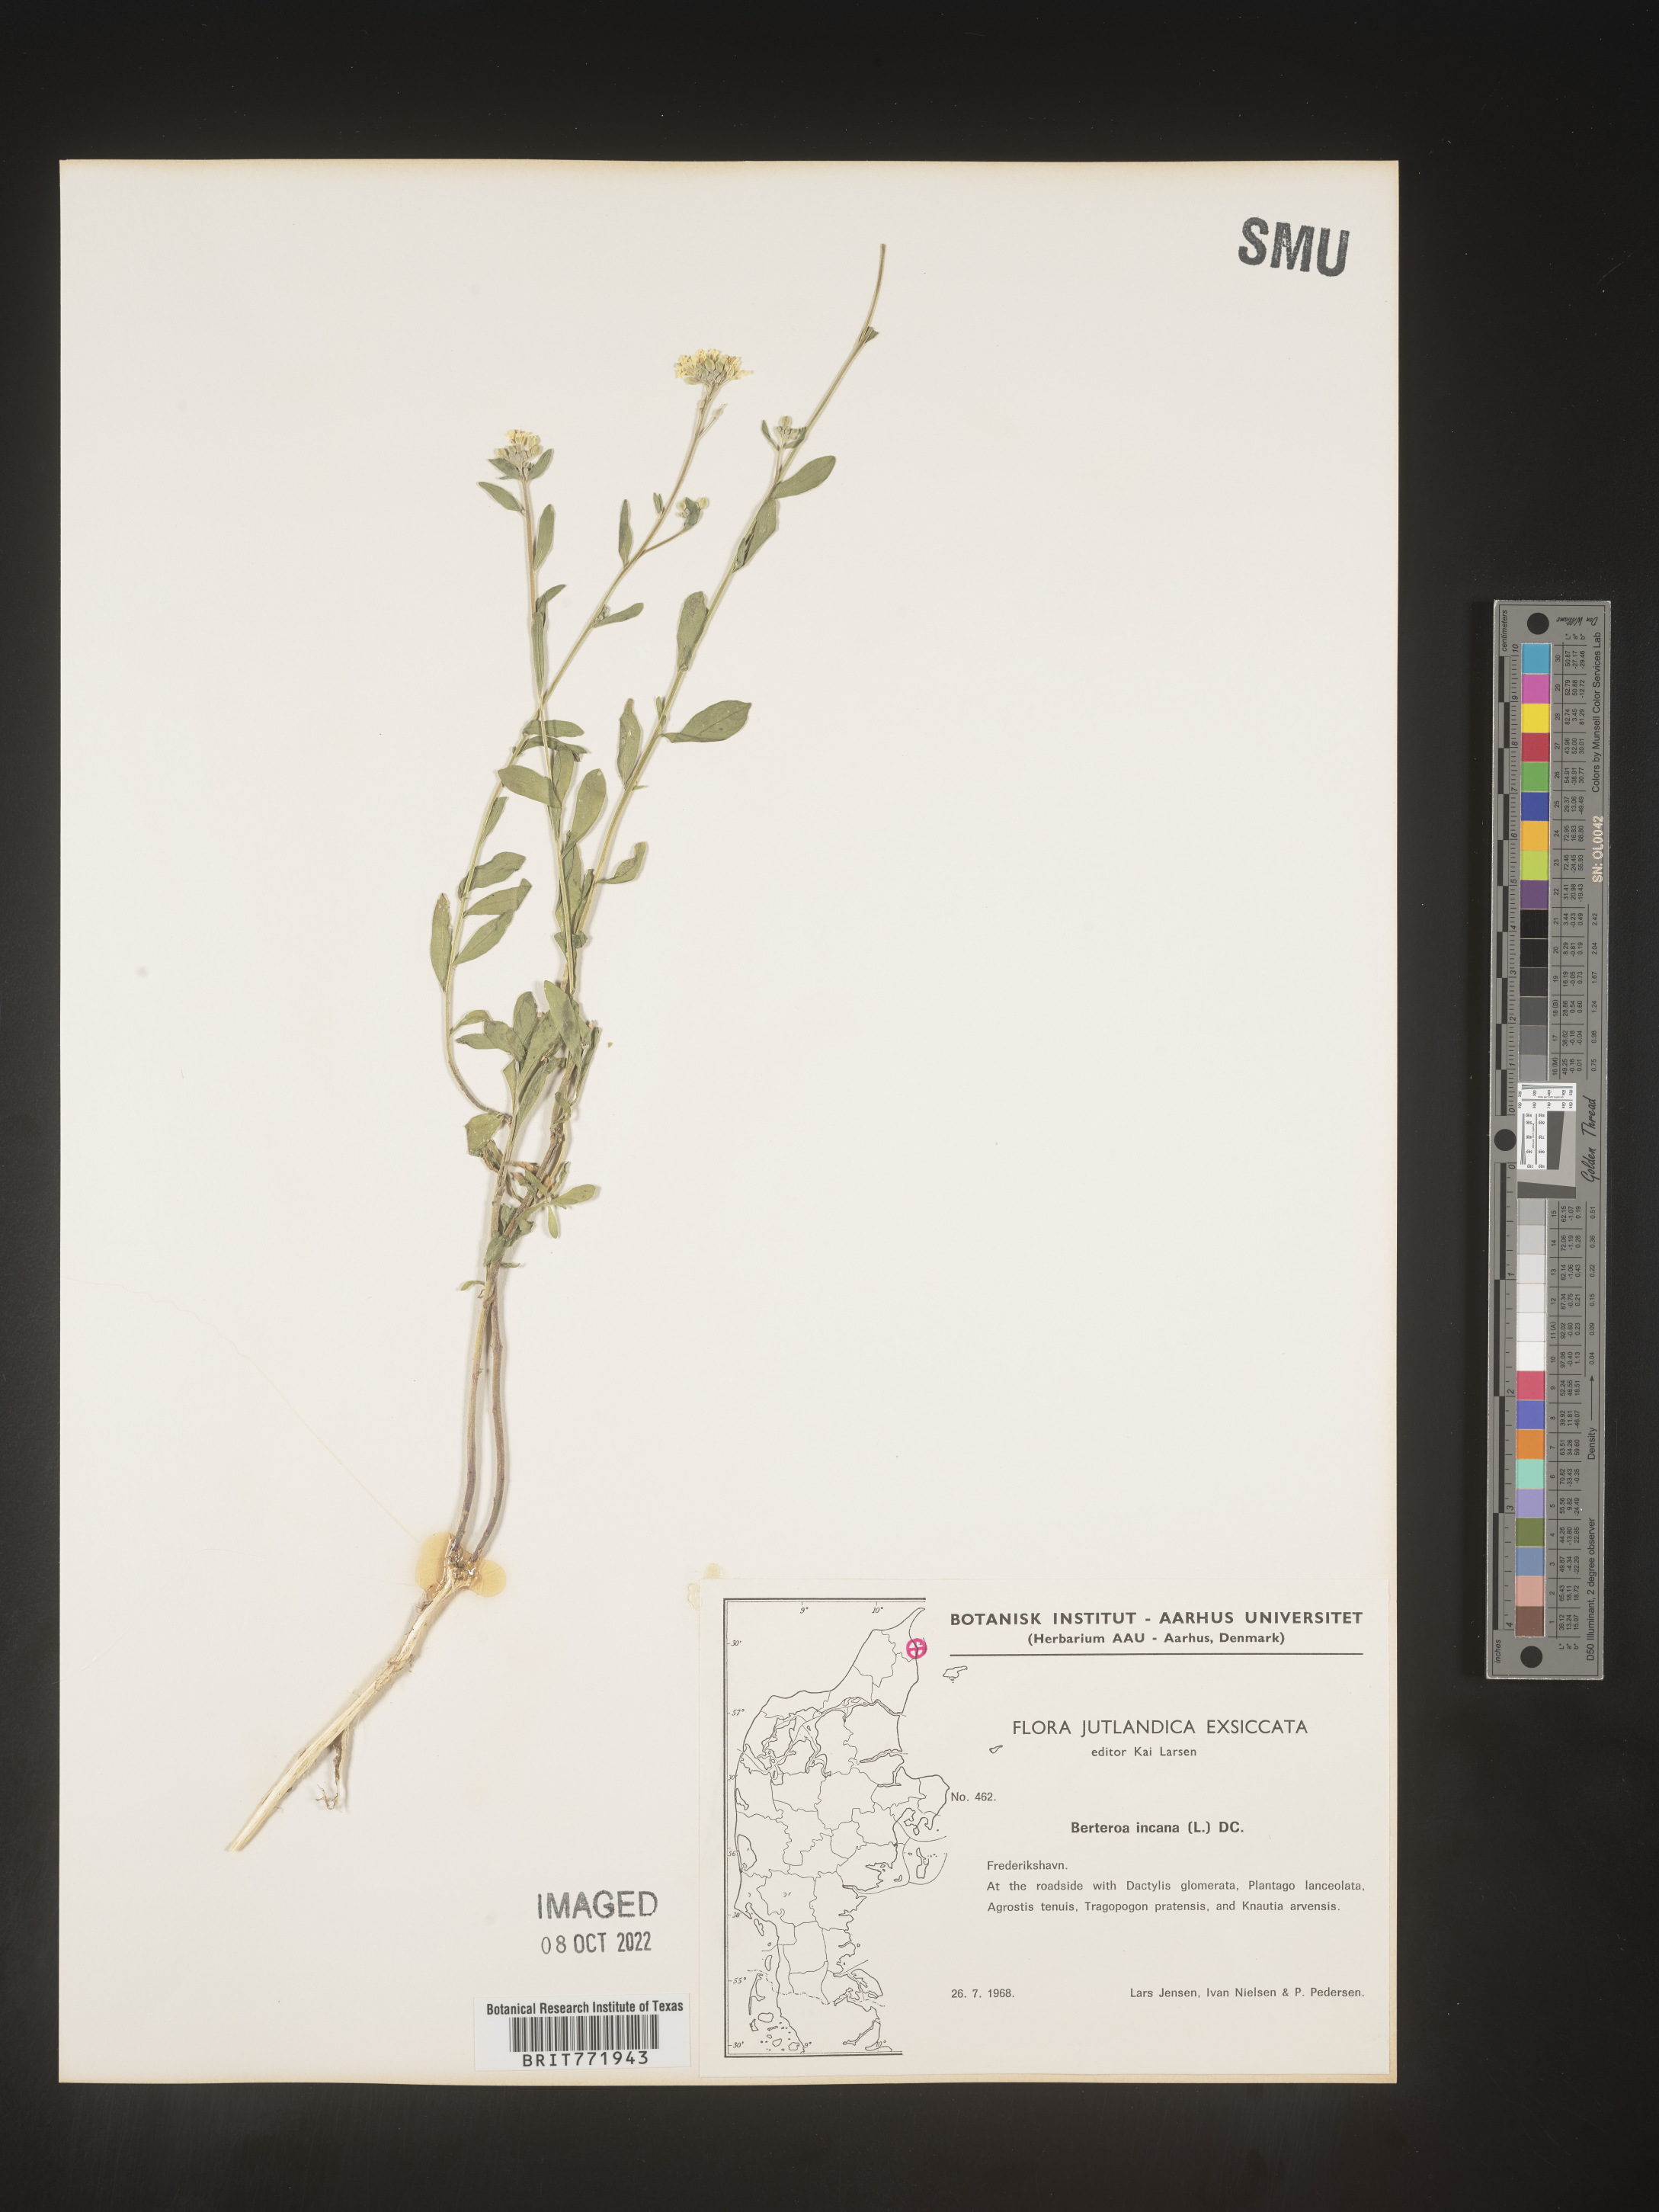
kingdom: Plantae
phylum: Tracheophyta
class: Magnoliopsida
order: Brassicales
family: Brassicaceae
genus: Berteroa
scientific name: Berteroa
